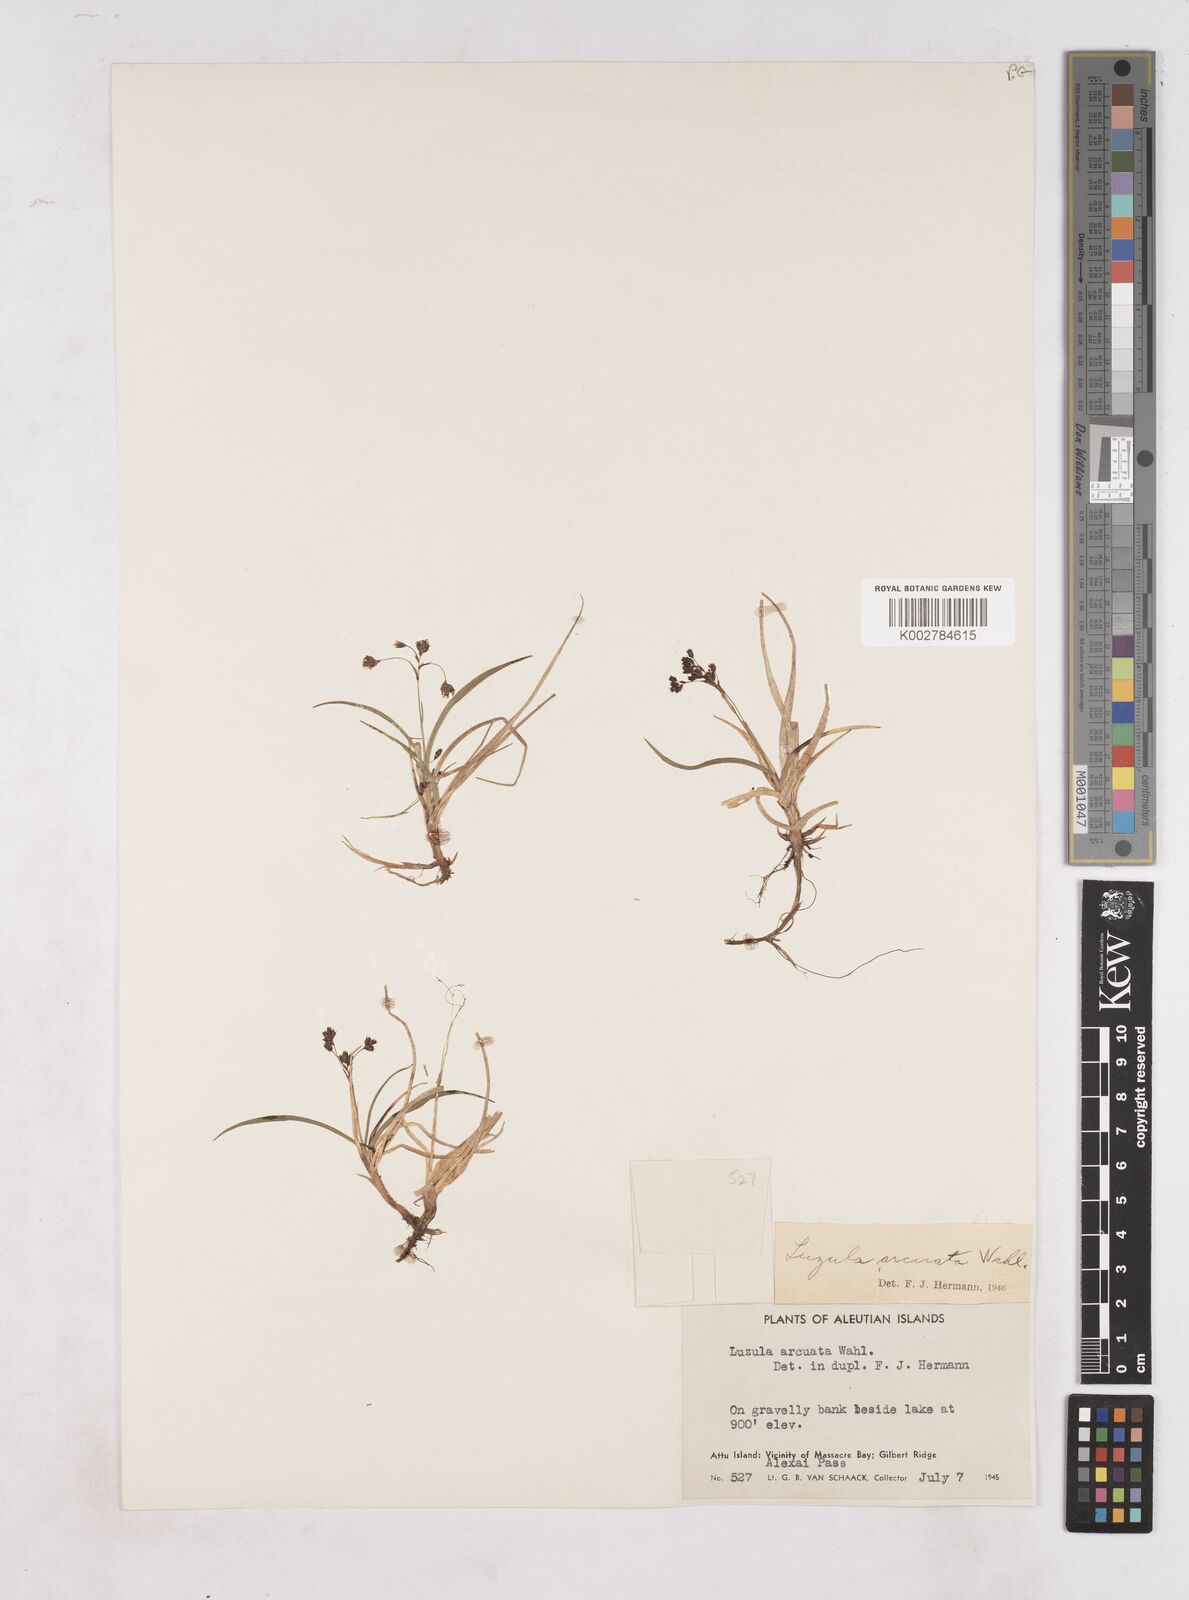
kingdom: Plantae
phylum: Tracheophyta
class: Liliopsida
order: Poales
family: Juncaceae
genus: Luzula
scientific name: Luzula arcuata
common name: Curved wood-rush
